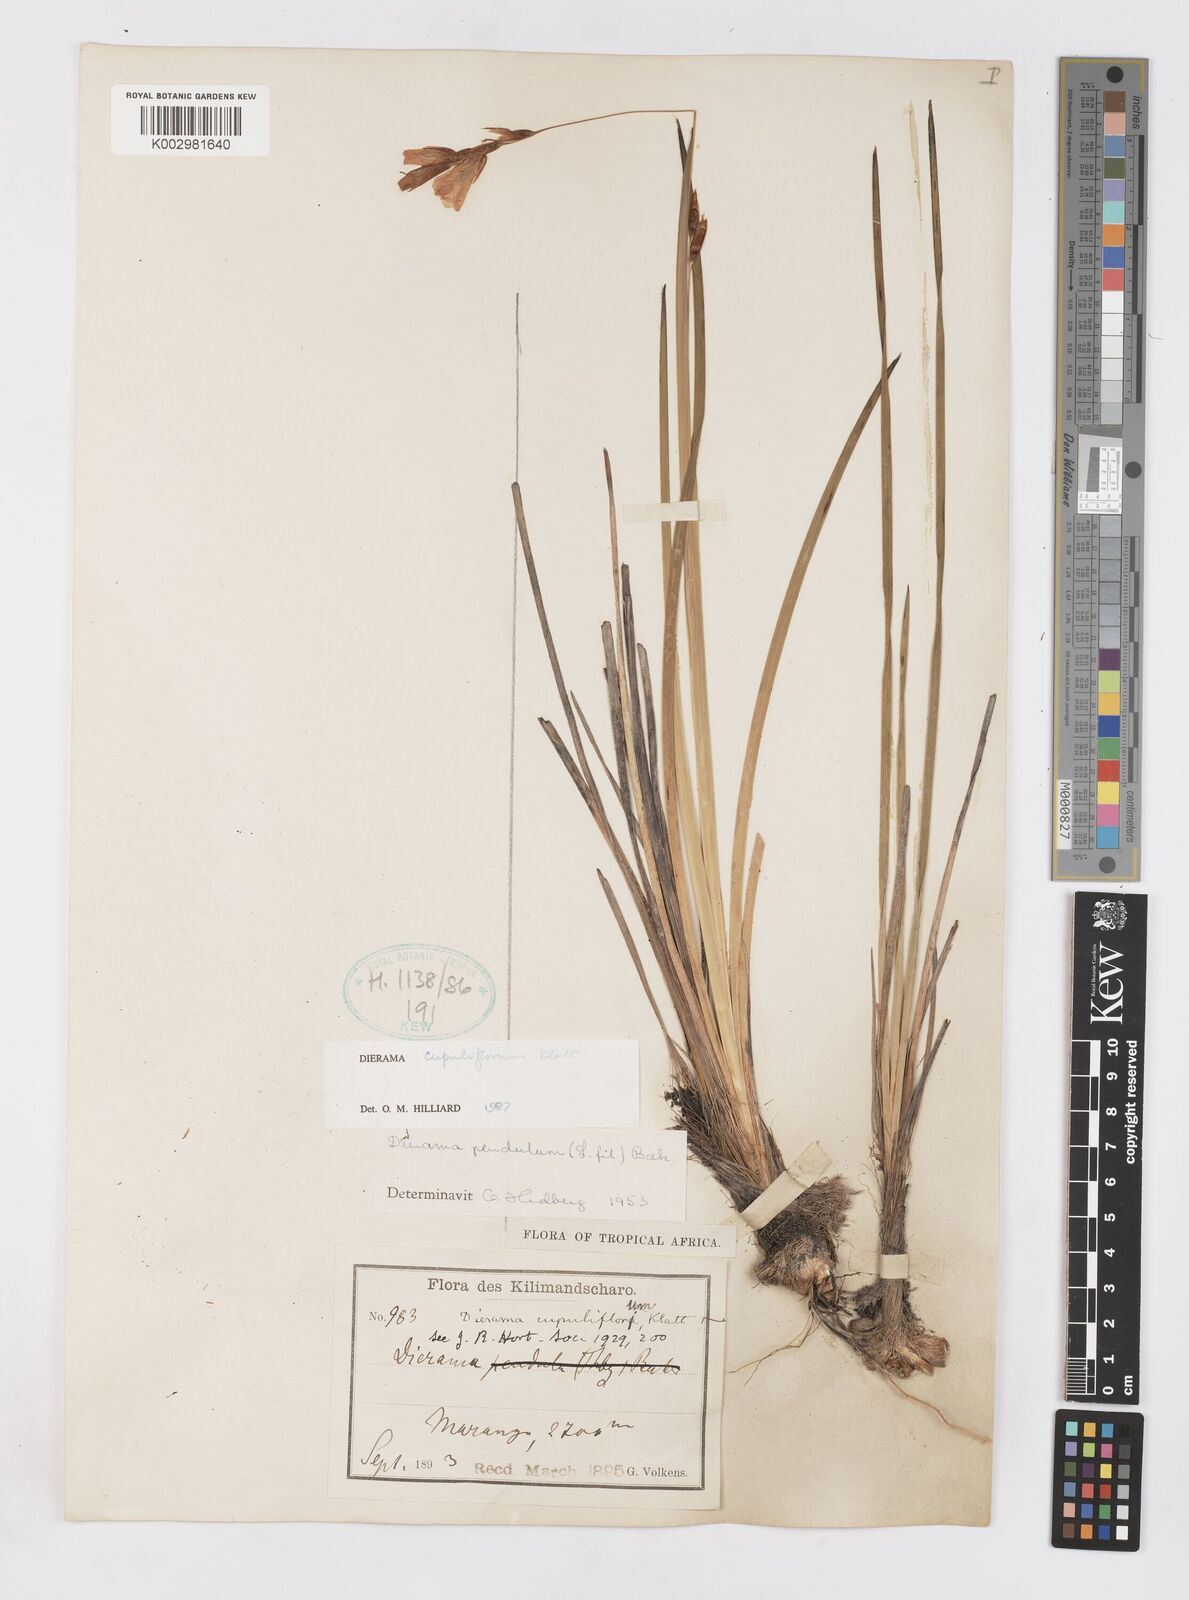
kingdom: Plantae
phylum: Tracheophyta
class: Liliopsida
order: Asparagales
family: Iridaceae
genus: Dierama
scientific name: Dierama cupuliflorum
